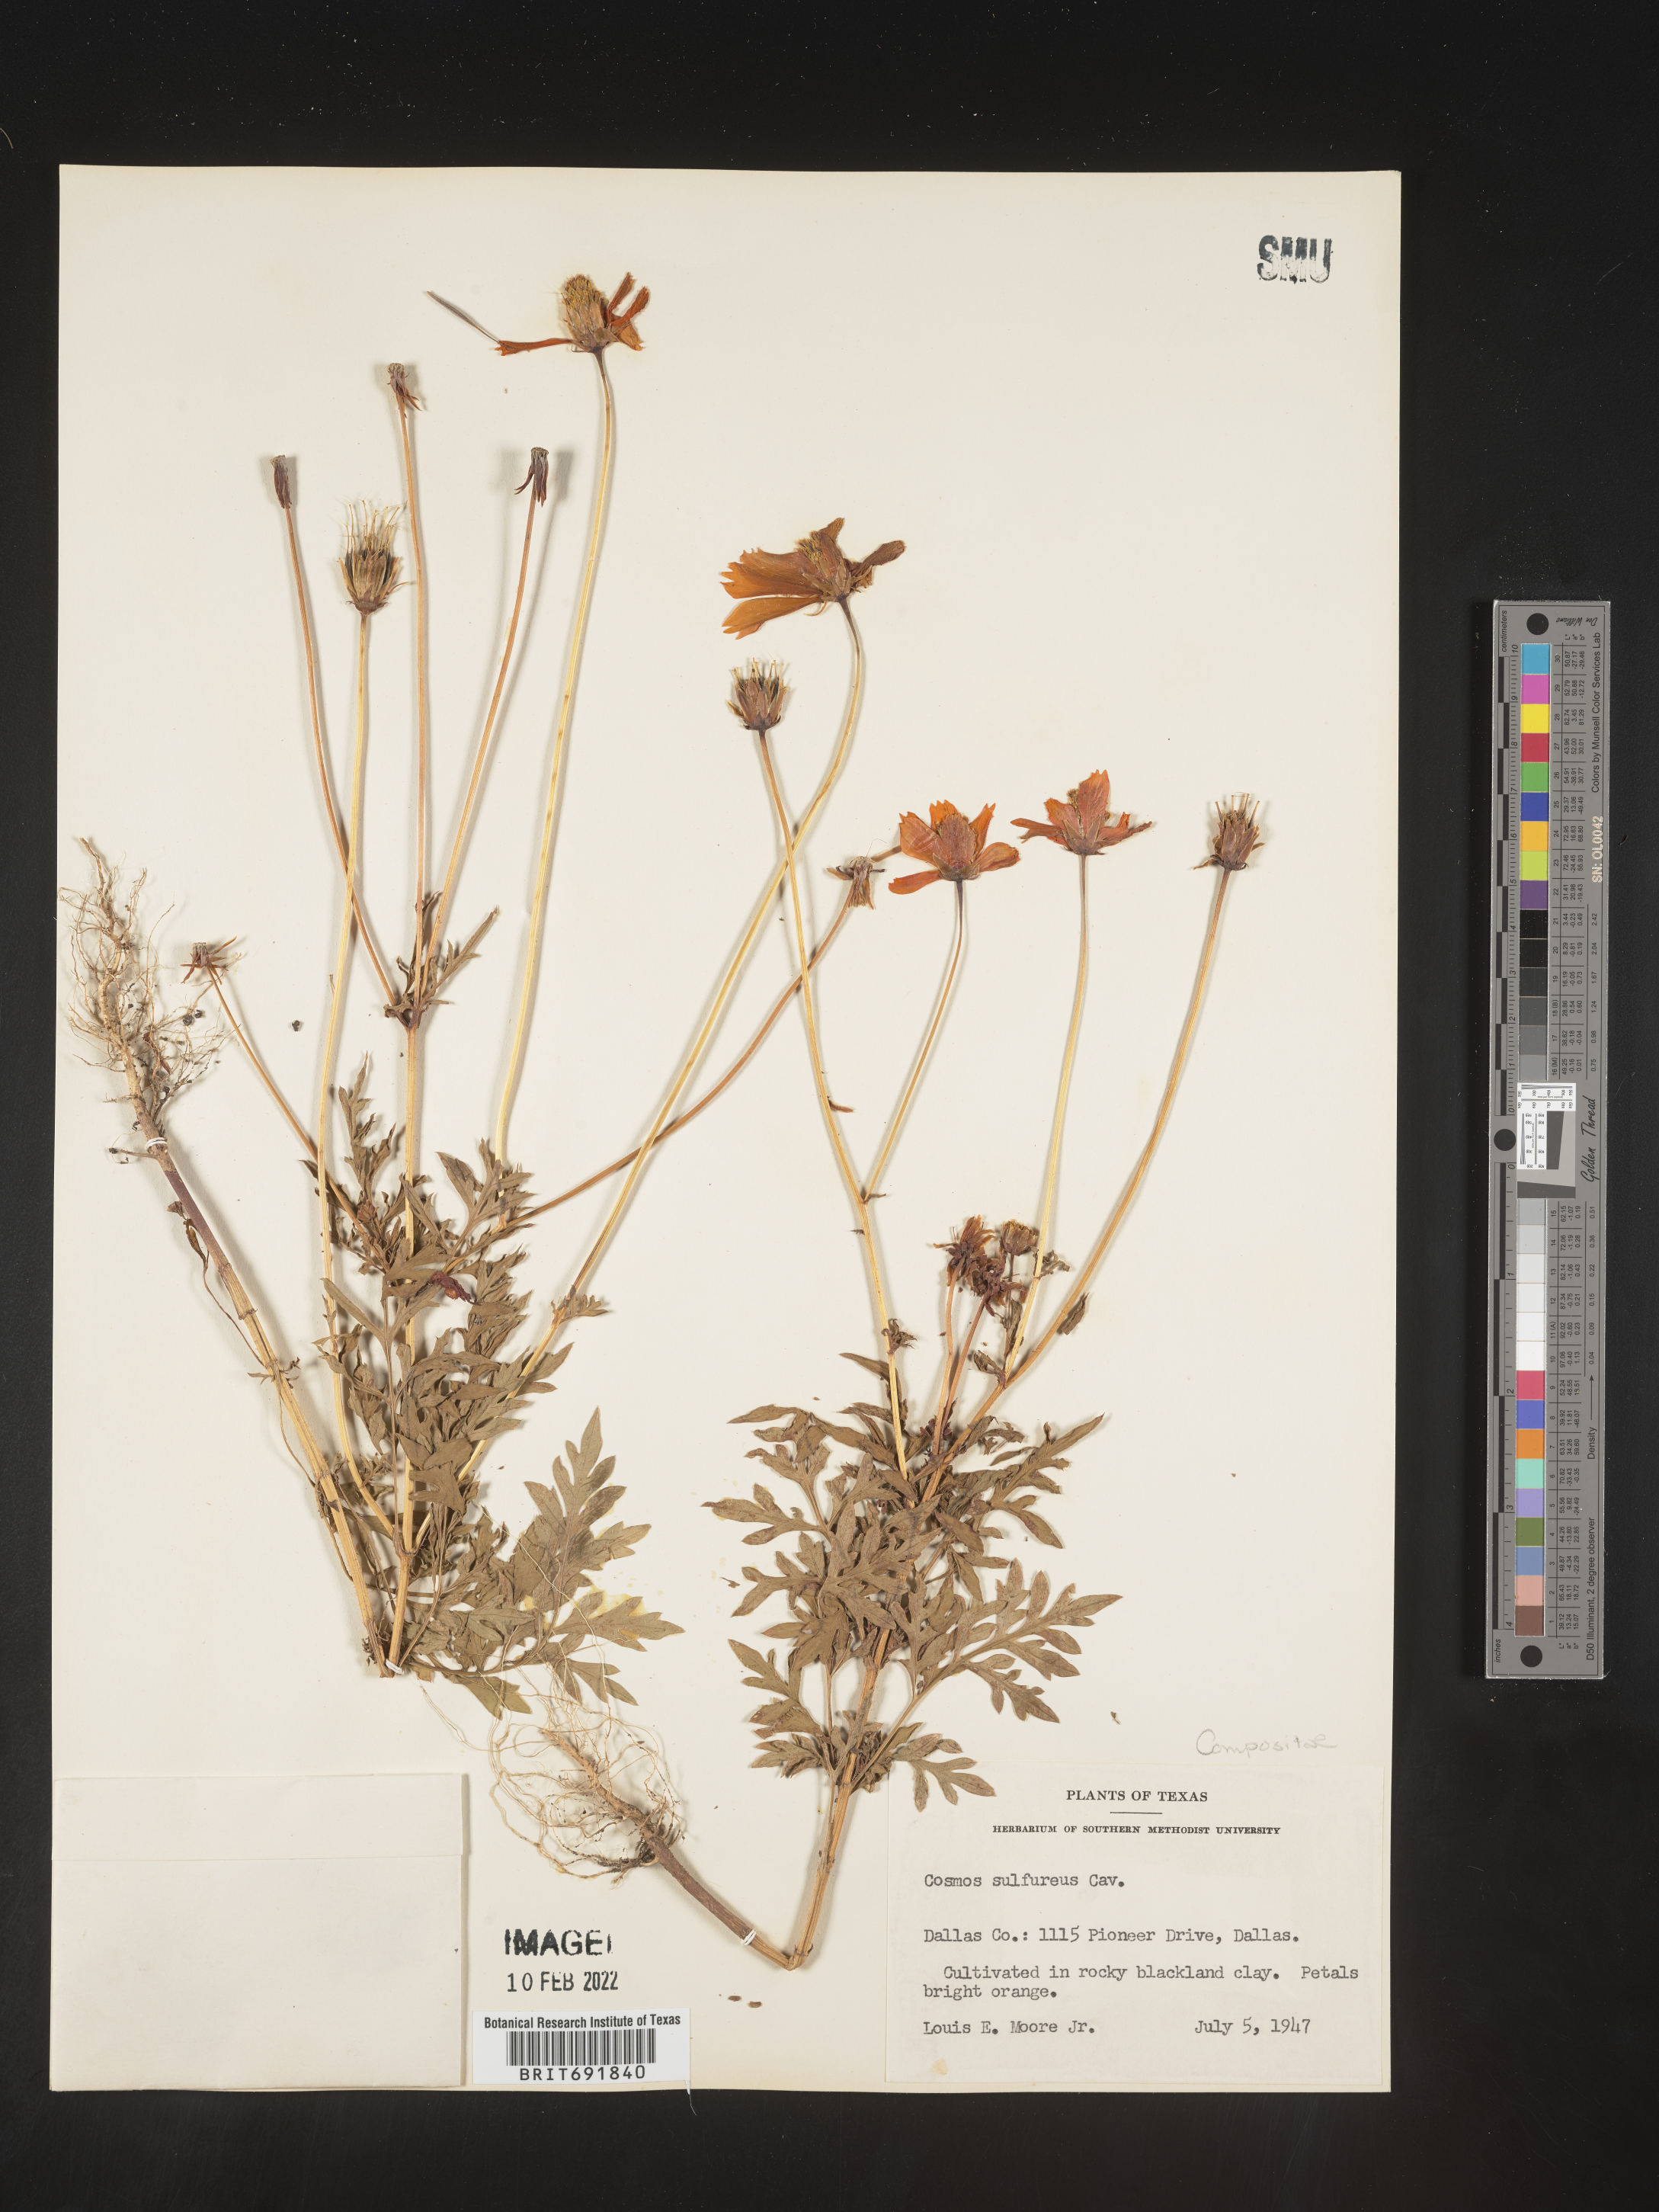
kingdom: Plantae
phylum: Tracheophyta
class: Magnoliopsida
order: Asterales
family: Asteraceae
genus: Cosmos
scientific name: Cosmos
